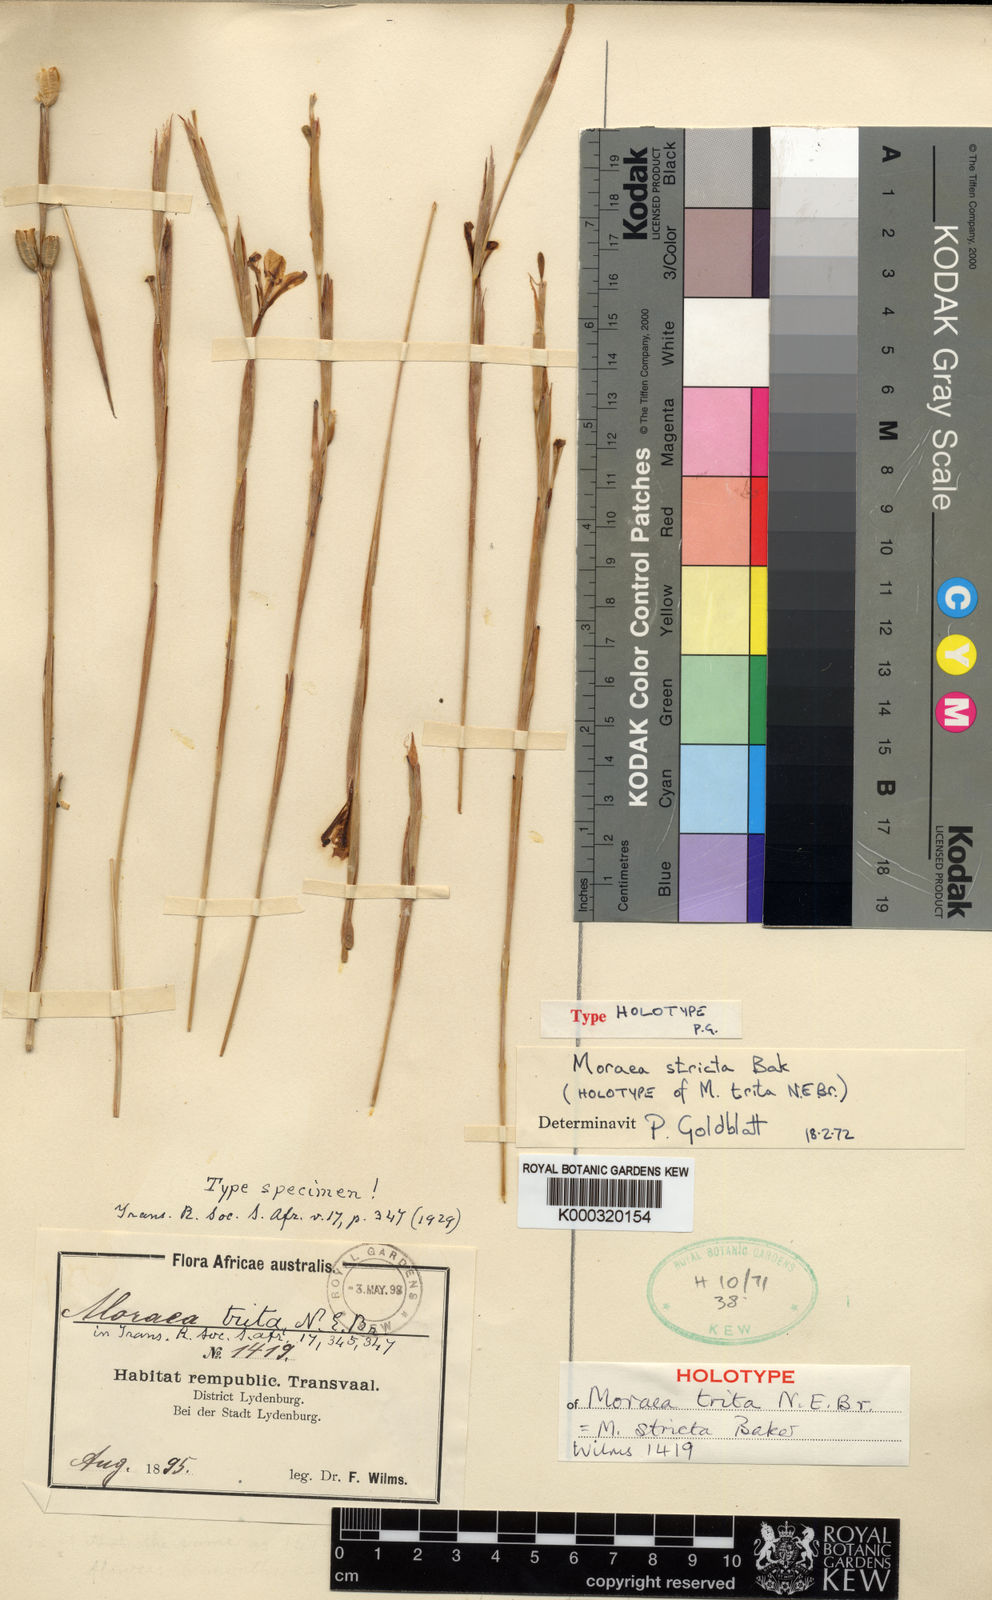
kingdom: Plantae
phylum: Tracheophyta
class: Liliopsida
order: Asparagales
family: Iridaceae
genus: Moraea
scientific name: Moraea stricta
